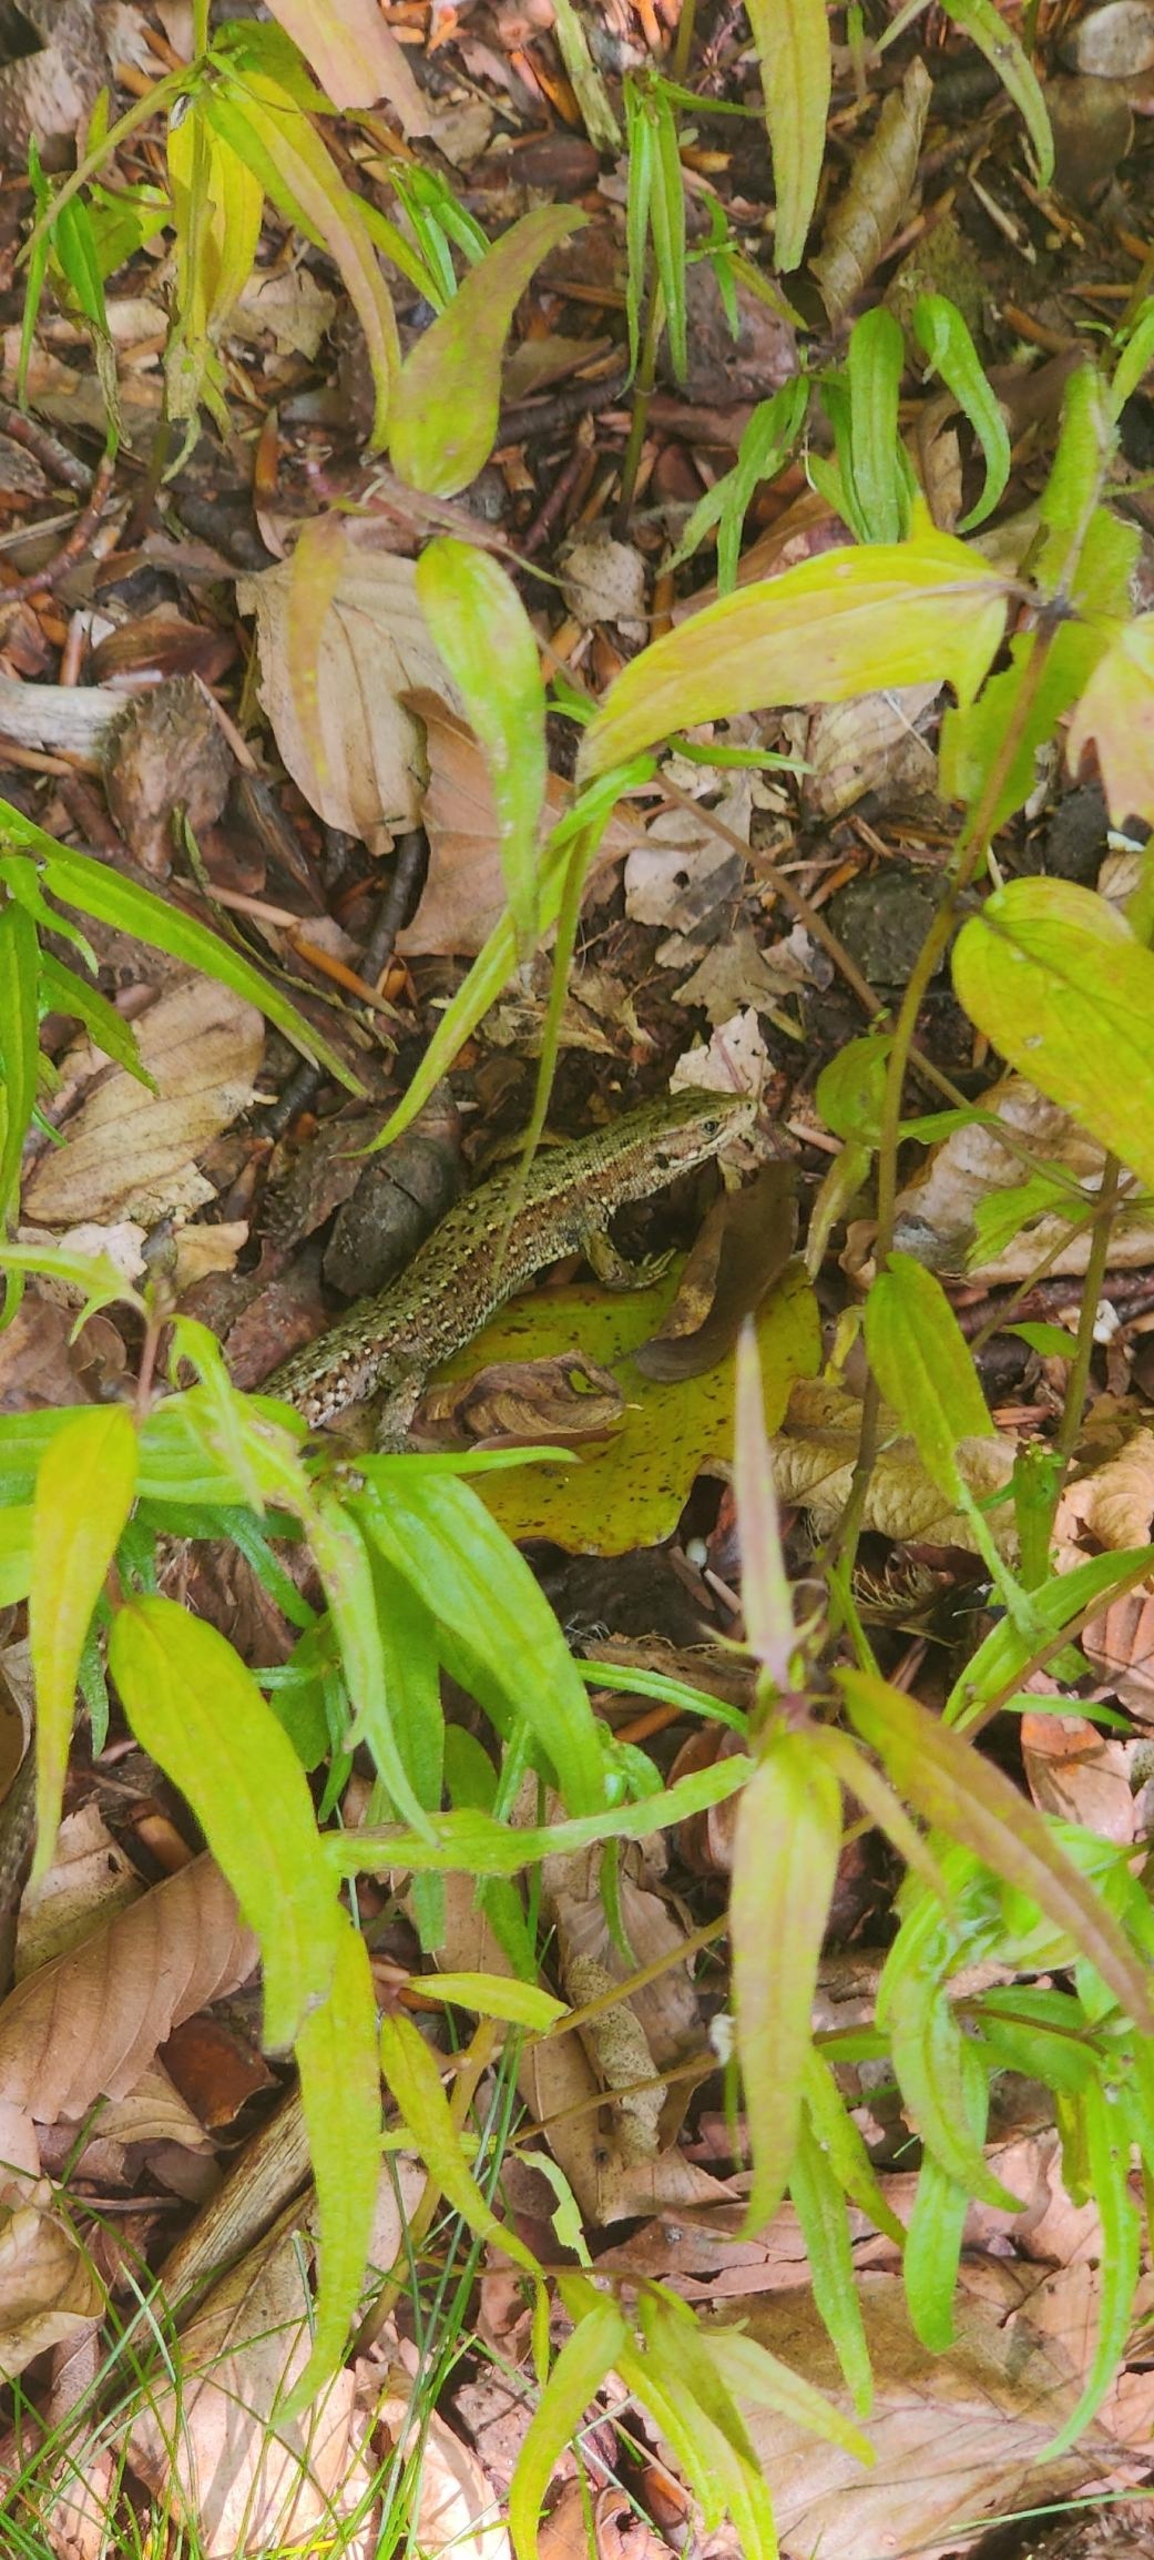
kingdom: Animalia
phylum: Chordata
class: Squamata
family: Lacertidae
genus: Zootoca
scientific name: Zootoca vivipara
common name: Skovfirben
